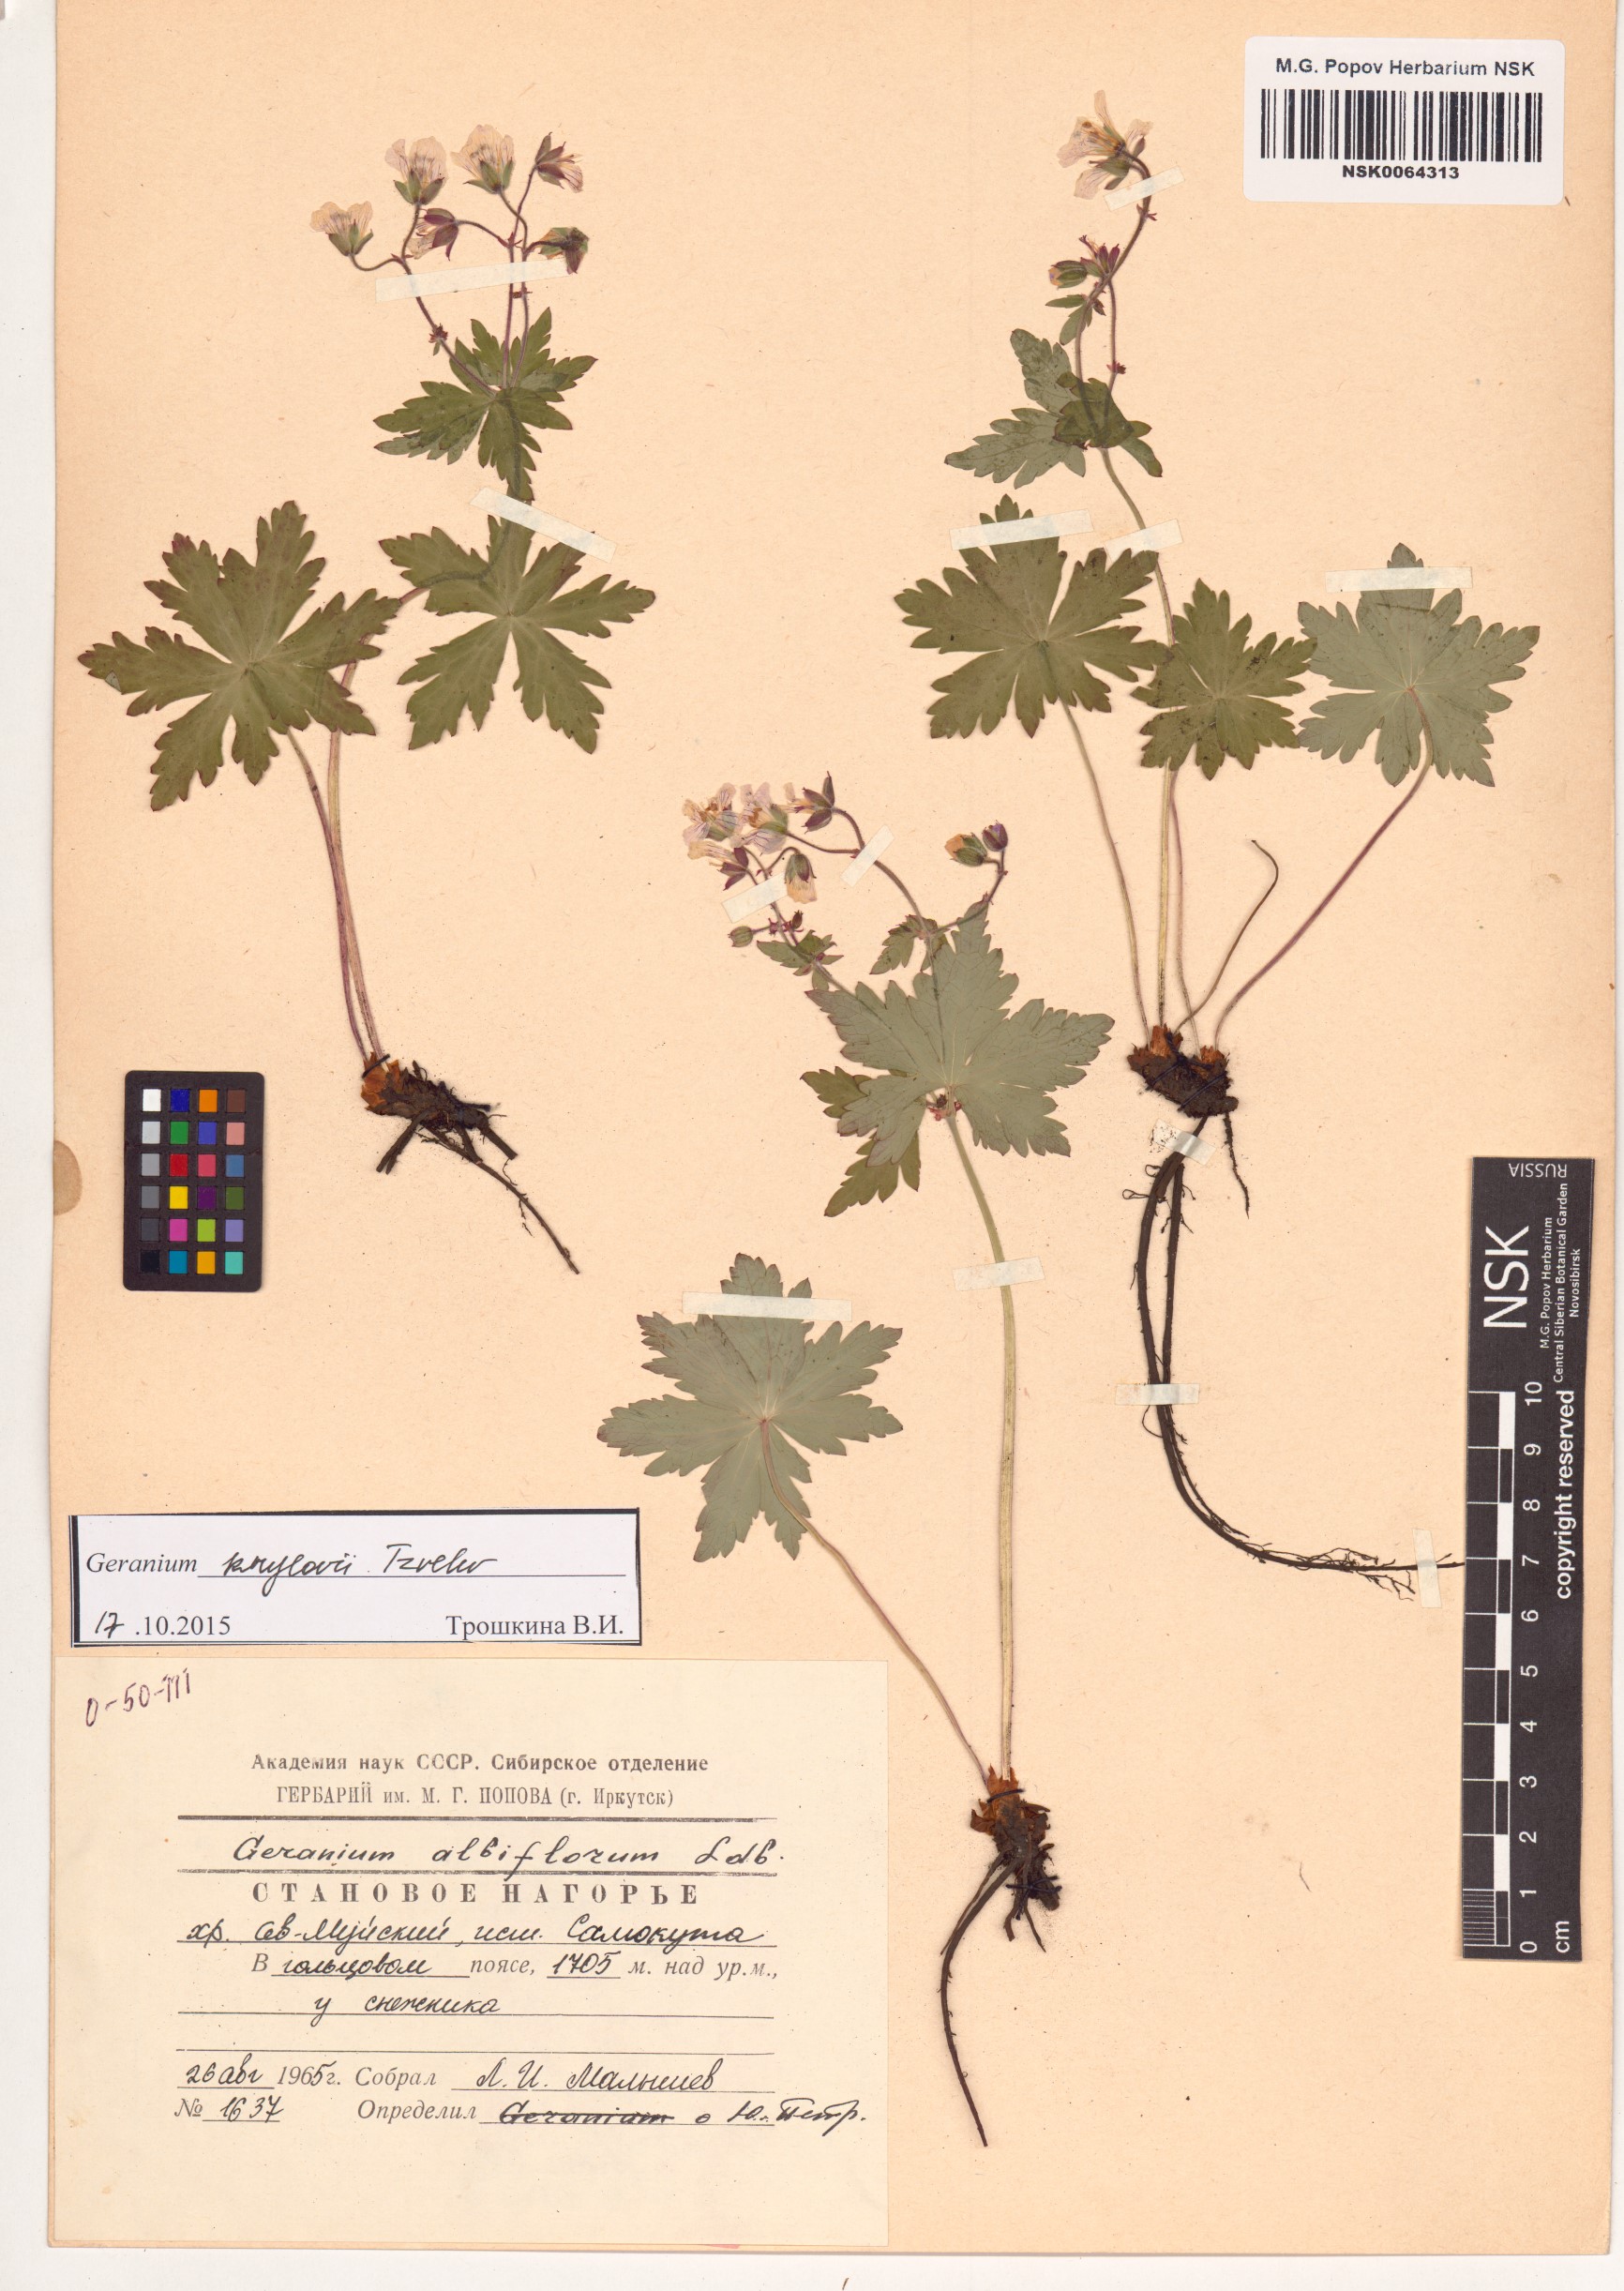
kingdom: Plantae
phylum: Tracheophyta
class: Magnoliopsida
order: Geraniales
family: Geraniaceae
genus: Geranium
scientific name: Geranium sylvaticum
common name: Wood crane's-bill
